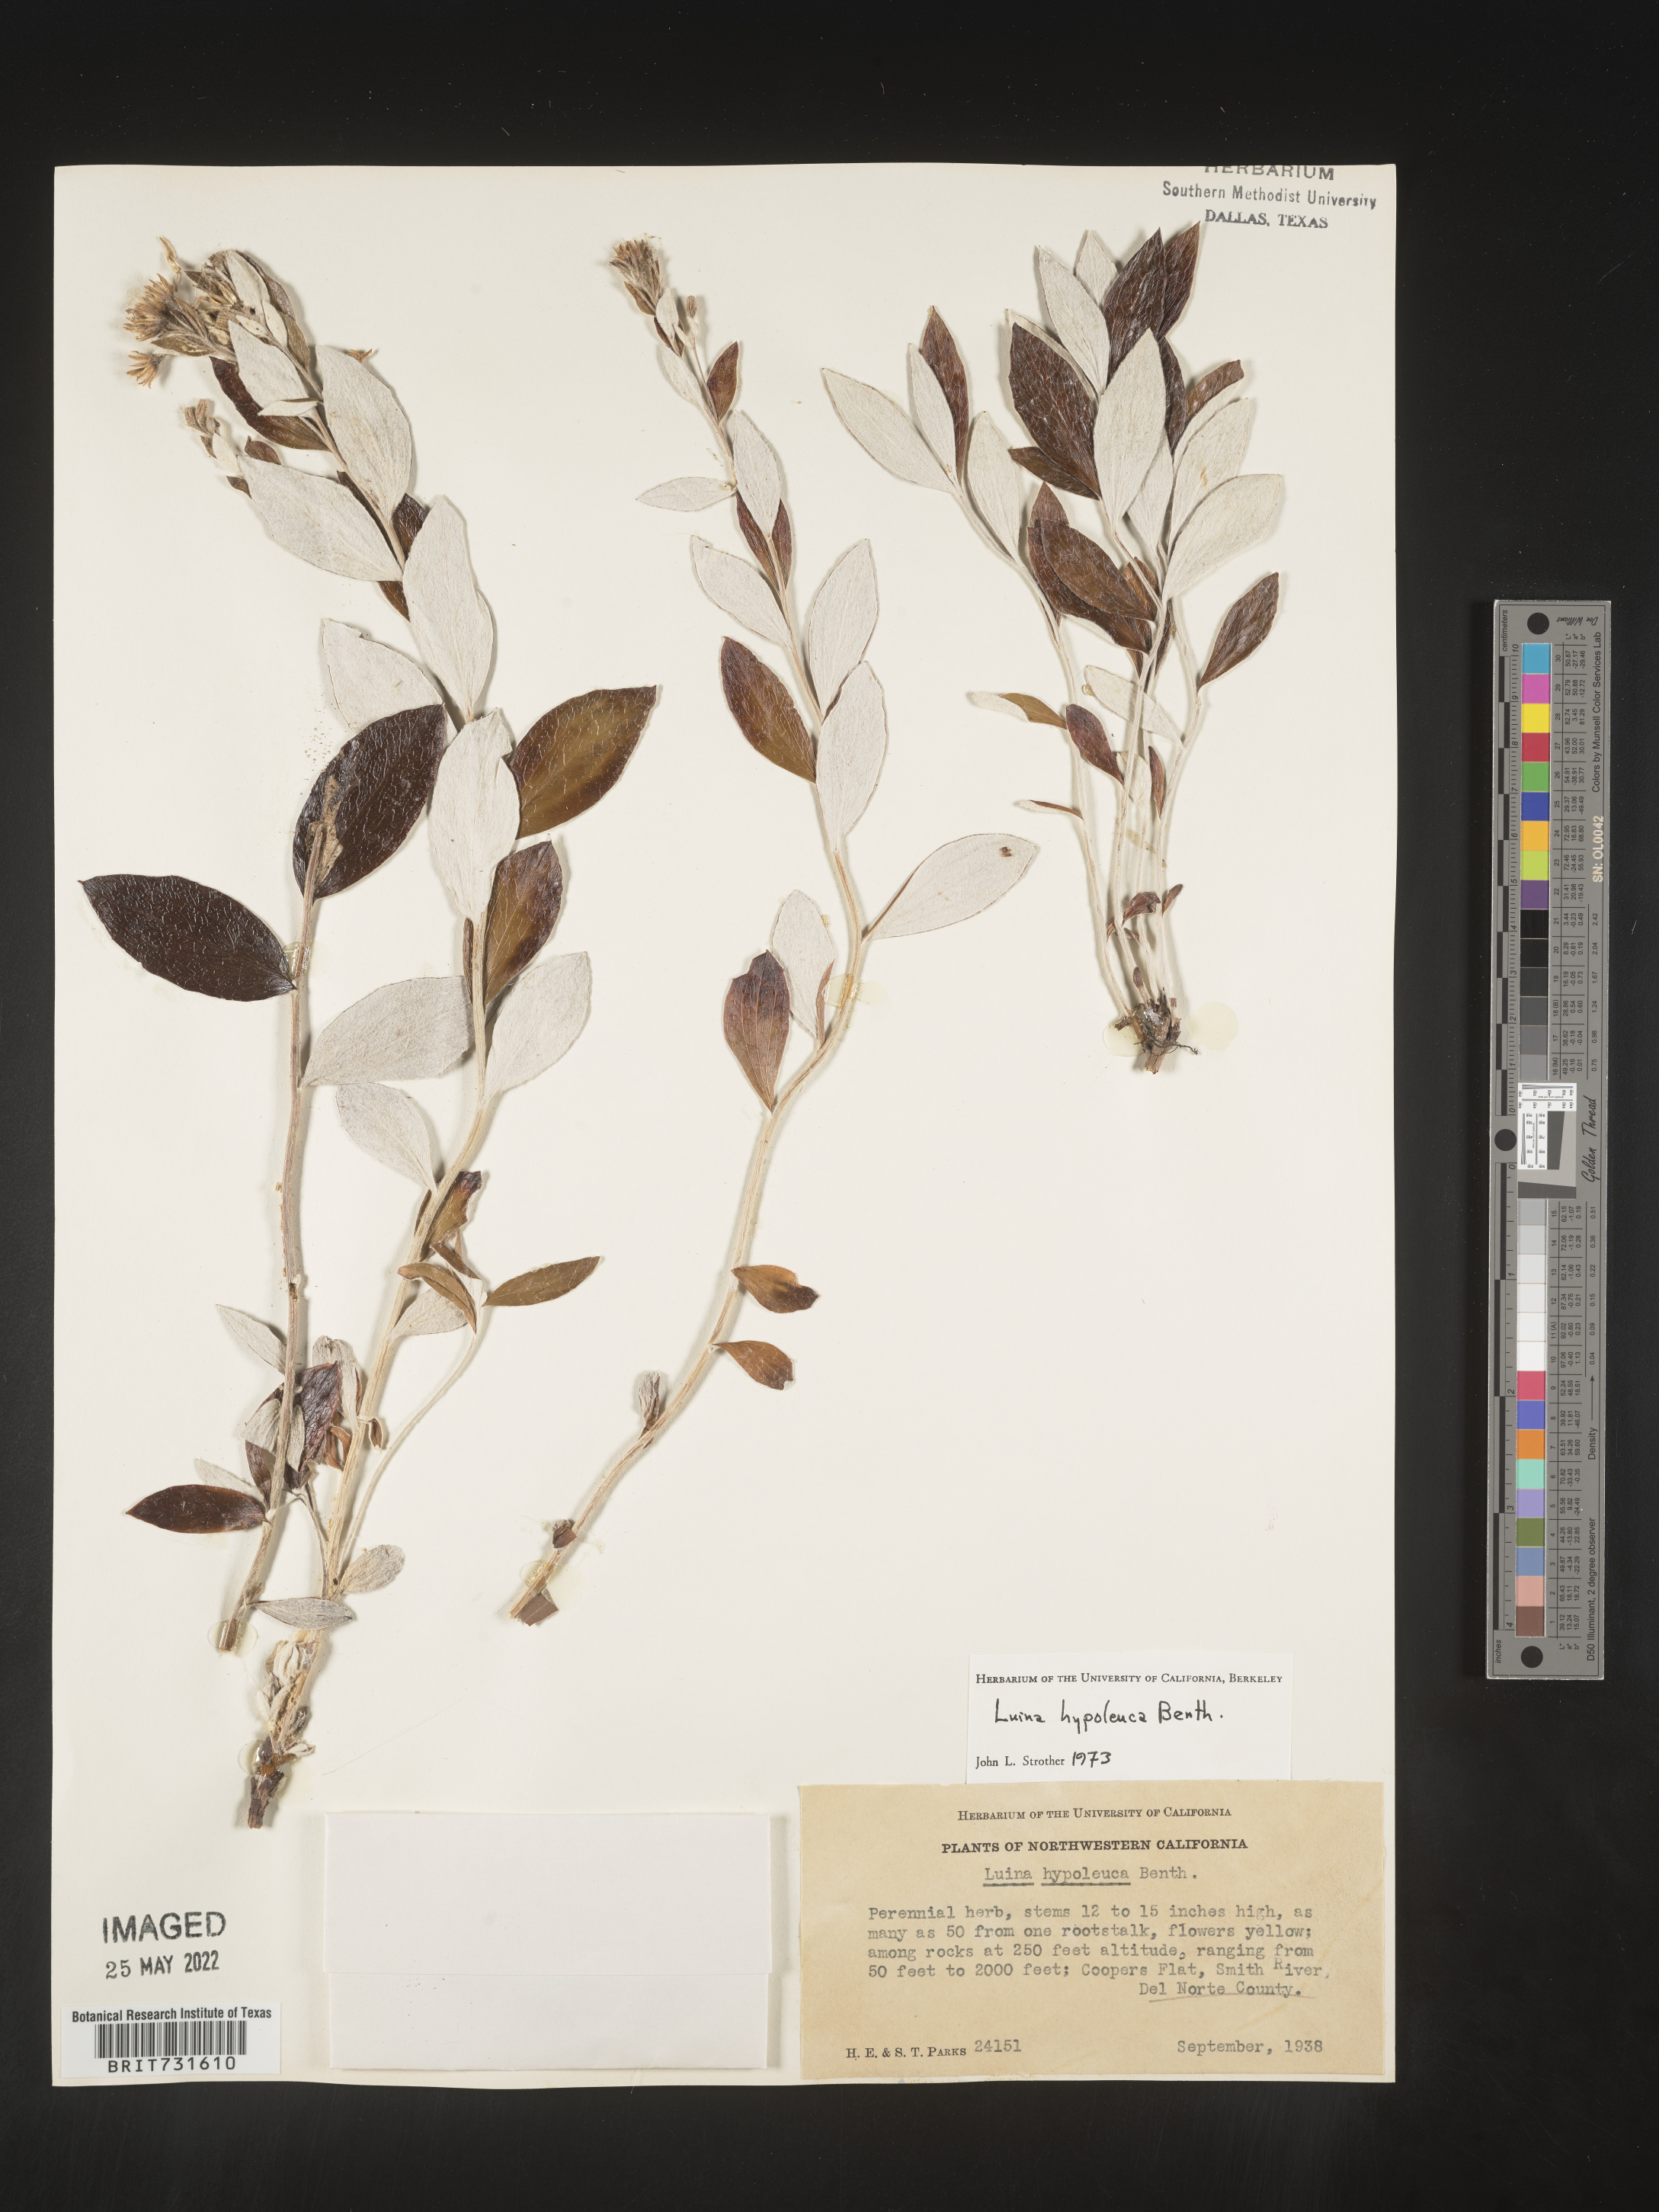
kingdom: Plantae
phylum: Tracheophyta
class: Magnoliopsida
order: Asterales
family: Asteraceae
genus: Luina
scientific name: Luina hypoleuca
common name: Little-leaved luina
